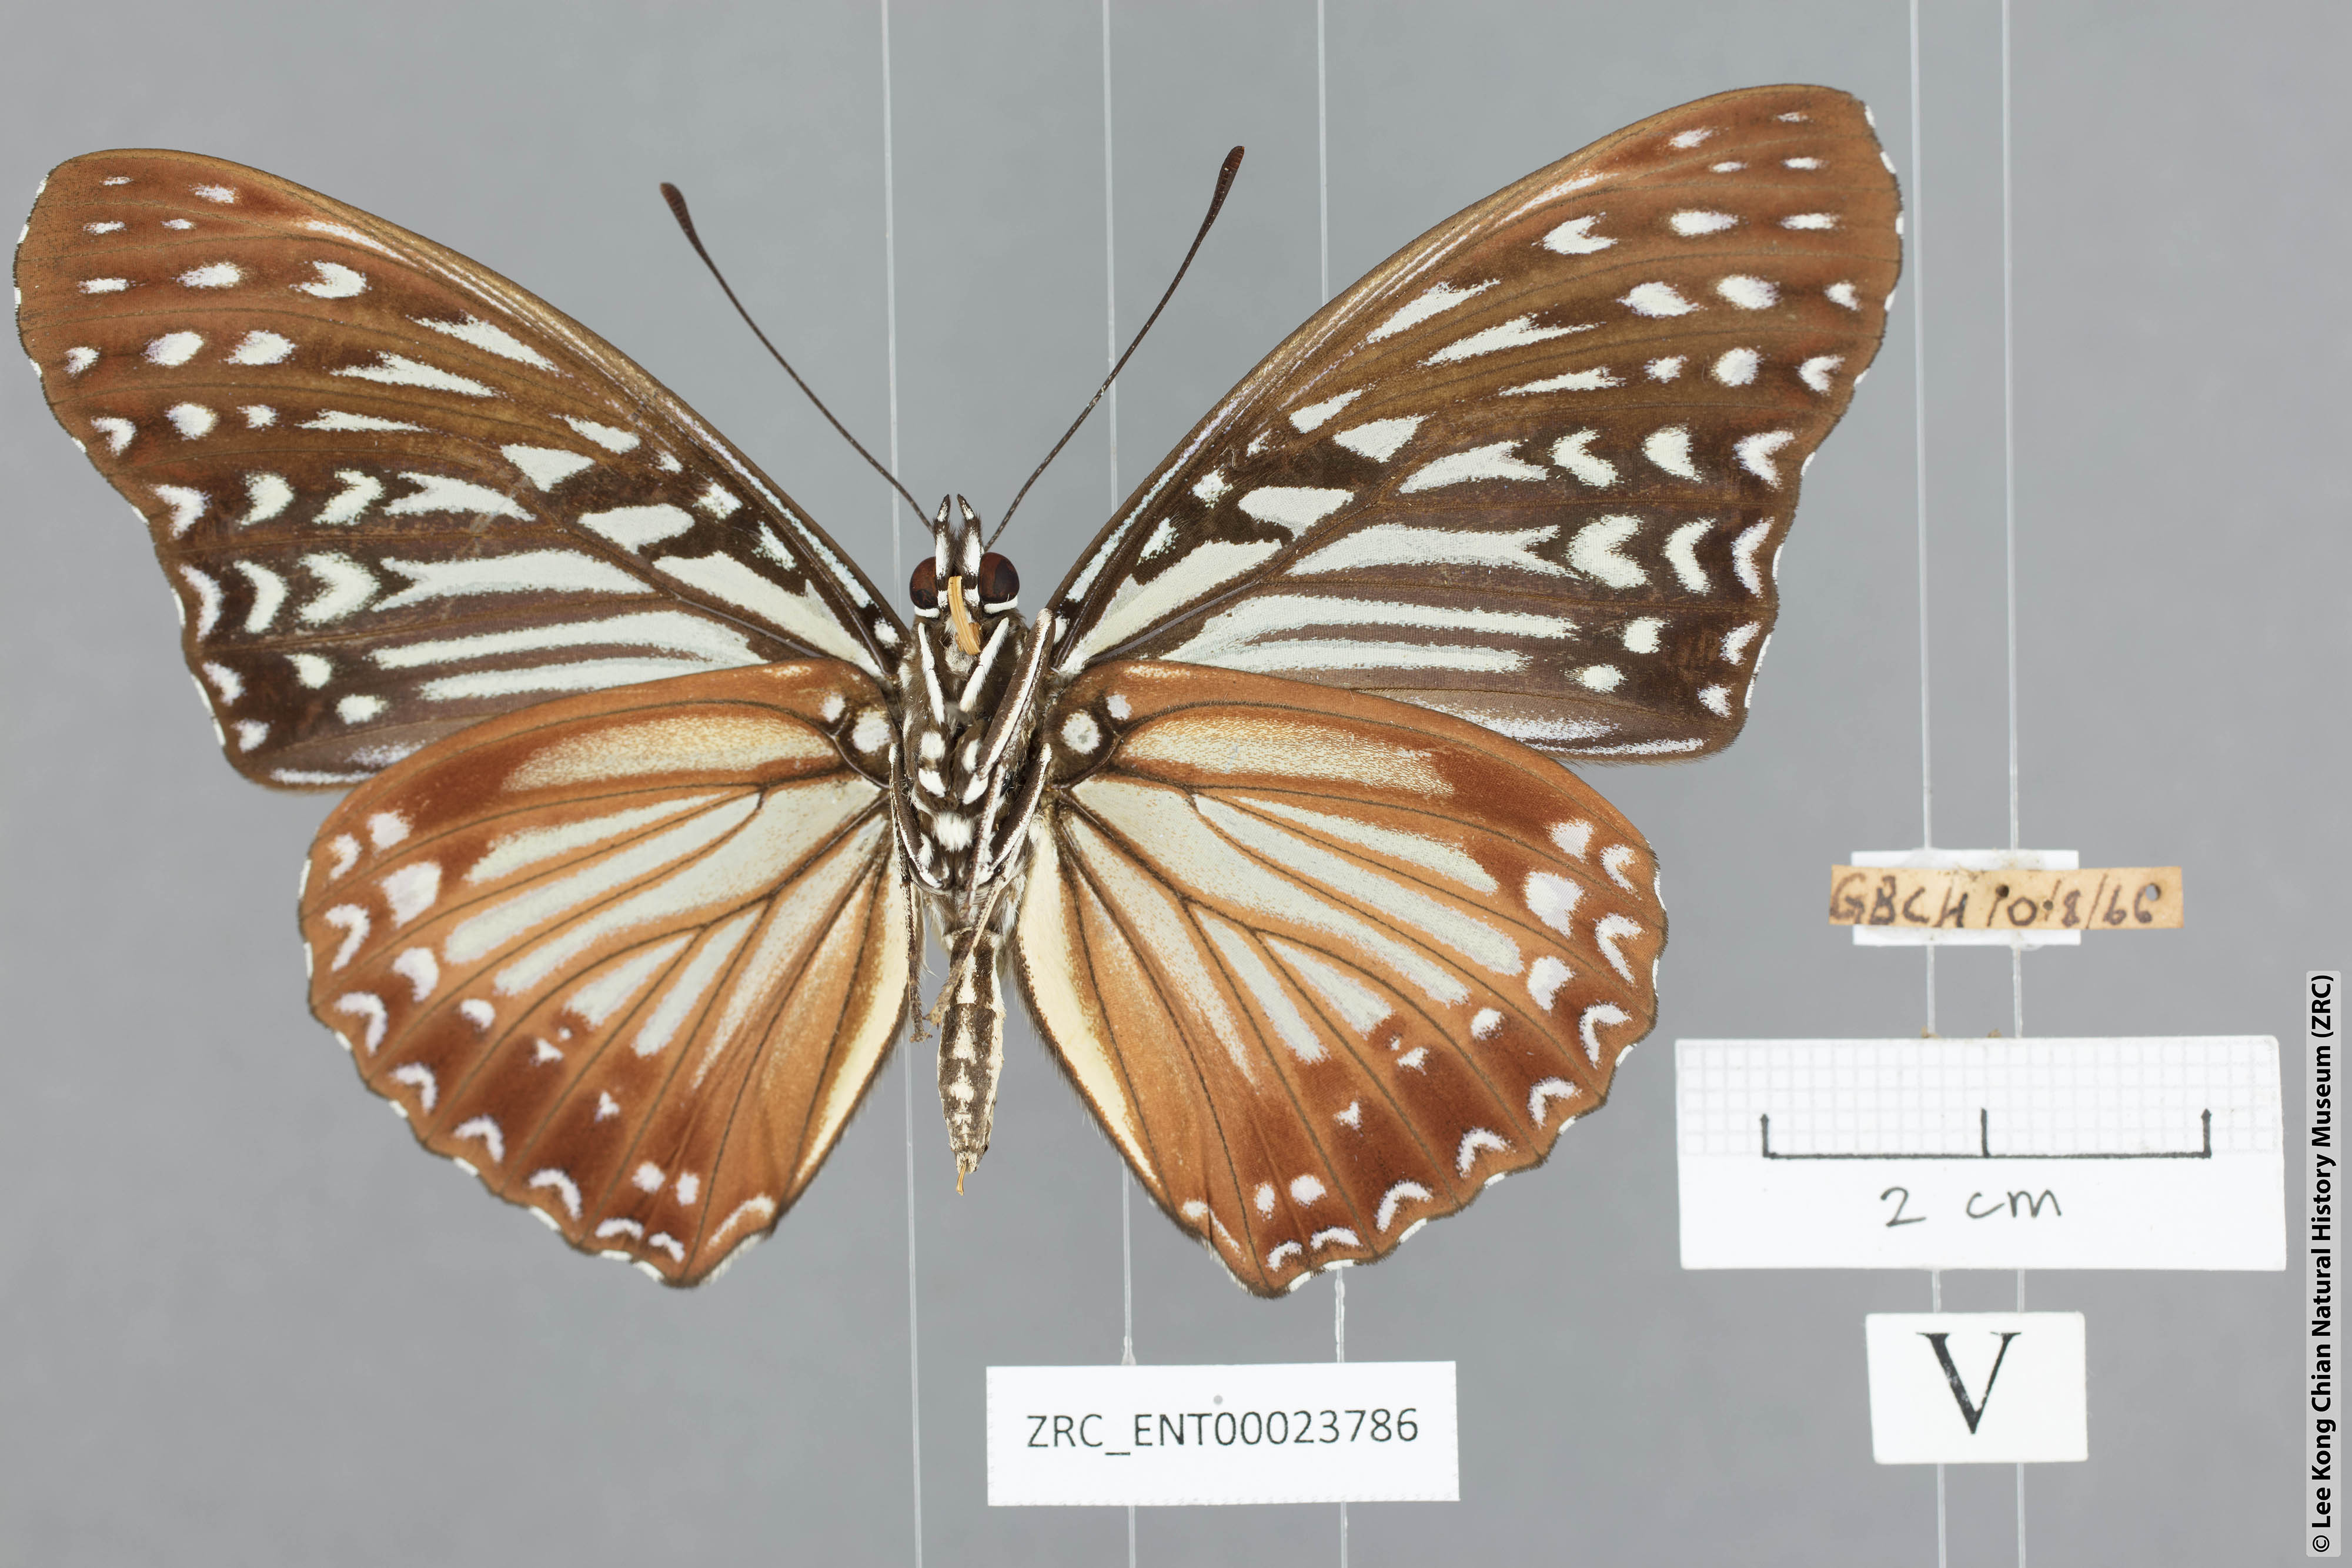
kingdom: Animalia
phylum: Arthropoda
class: Insecta
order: Lepidoptera
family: Nymphalidae
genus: Hestinalis
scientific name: Hestinalis nama
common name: Circe
